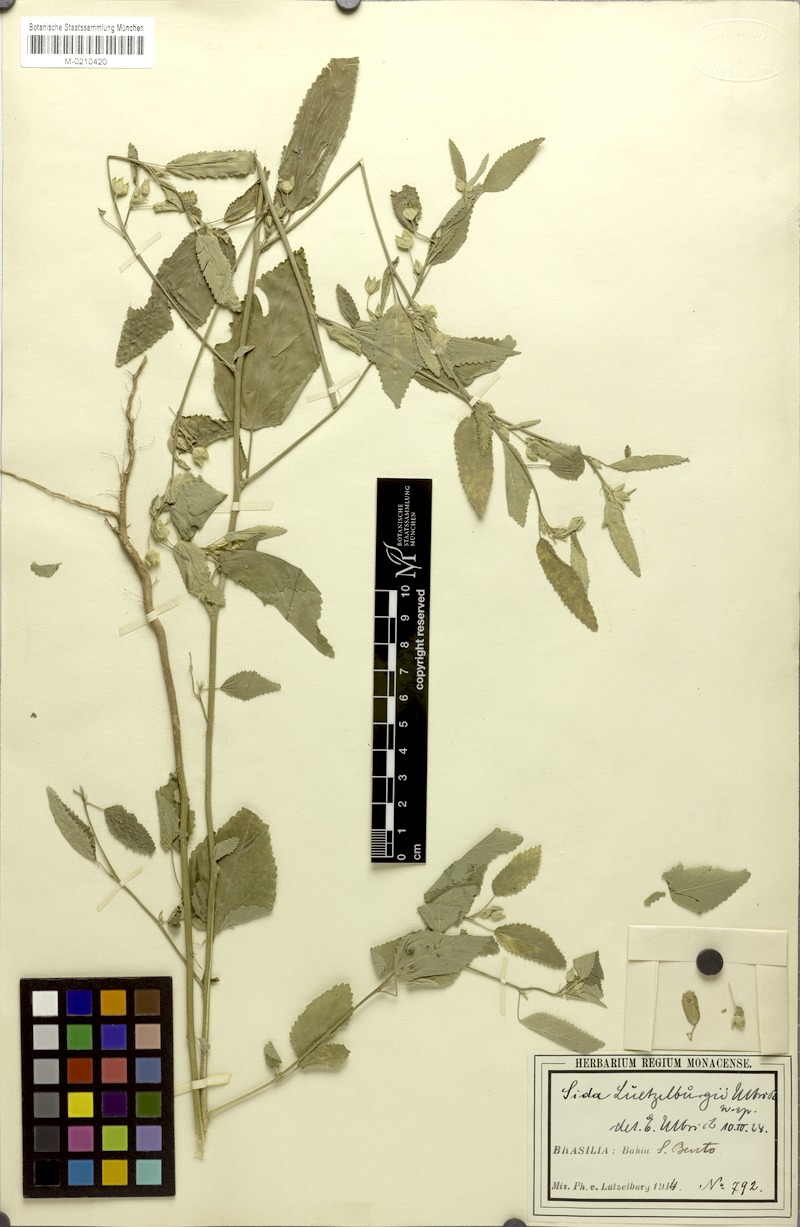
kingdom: Plantae
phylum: Tracheophyta
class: Magnoliopsida
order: Malvales
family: Malvaceae
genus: Sida
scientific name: Sida luetzelburgii
